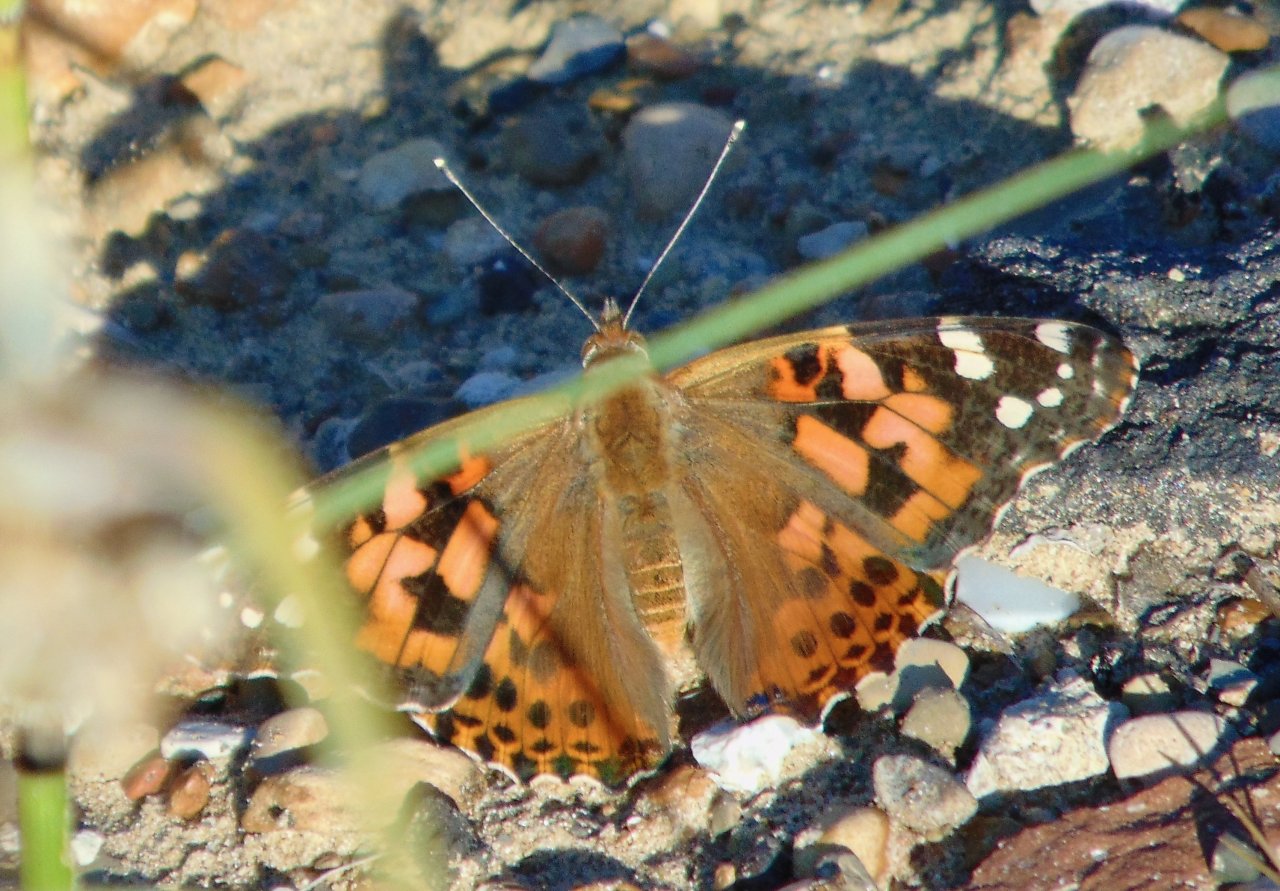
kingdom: Animalia
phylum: Arthropoda
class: Insecta
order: Lepidoptera
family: Nymphalidae
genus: Vanessa
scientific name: Vanessa cardui
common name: Painted Lady
